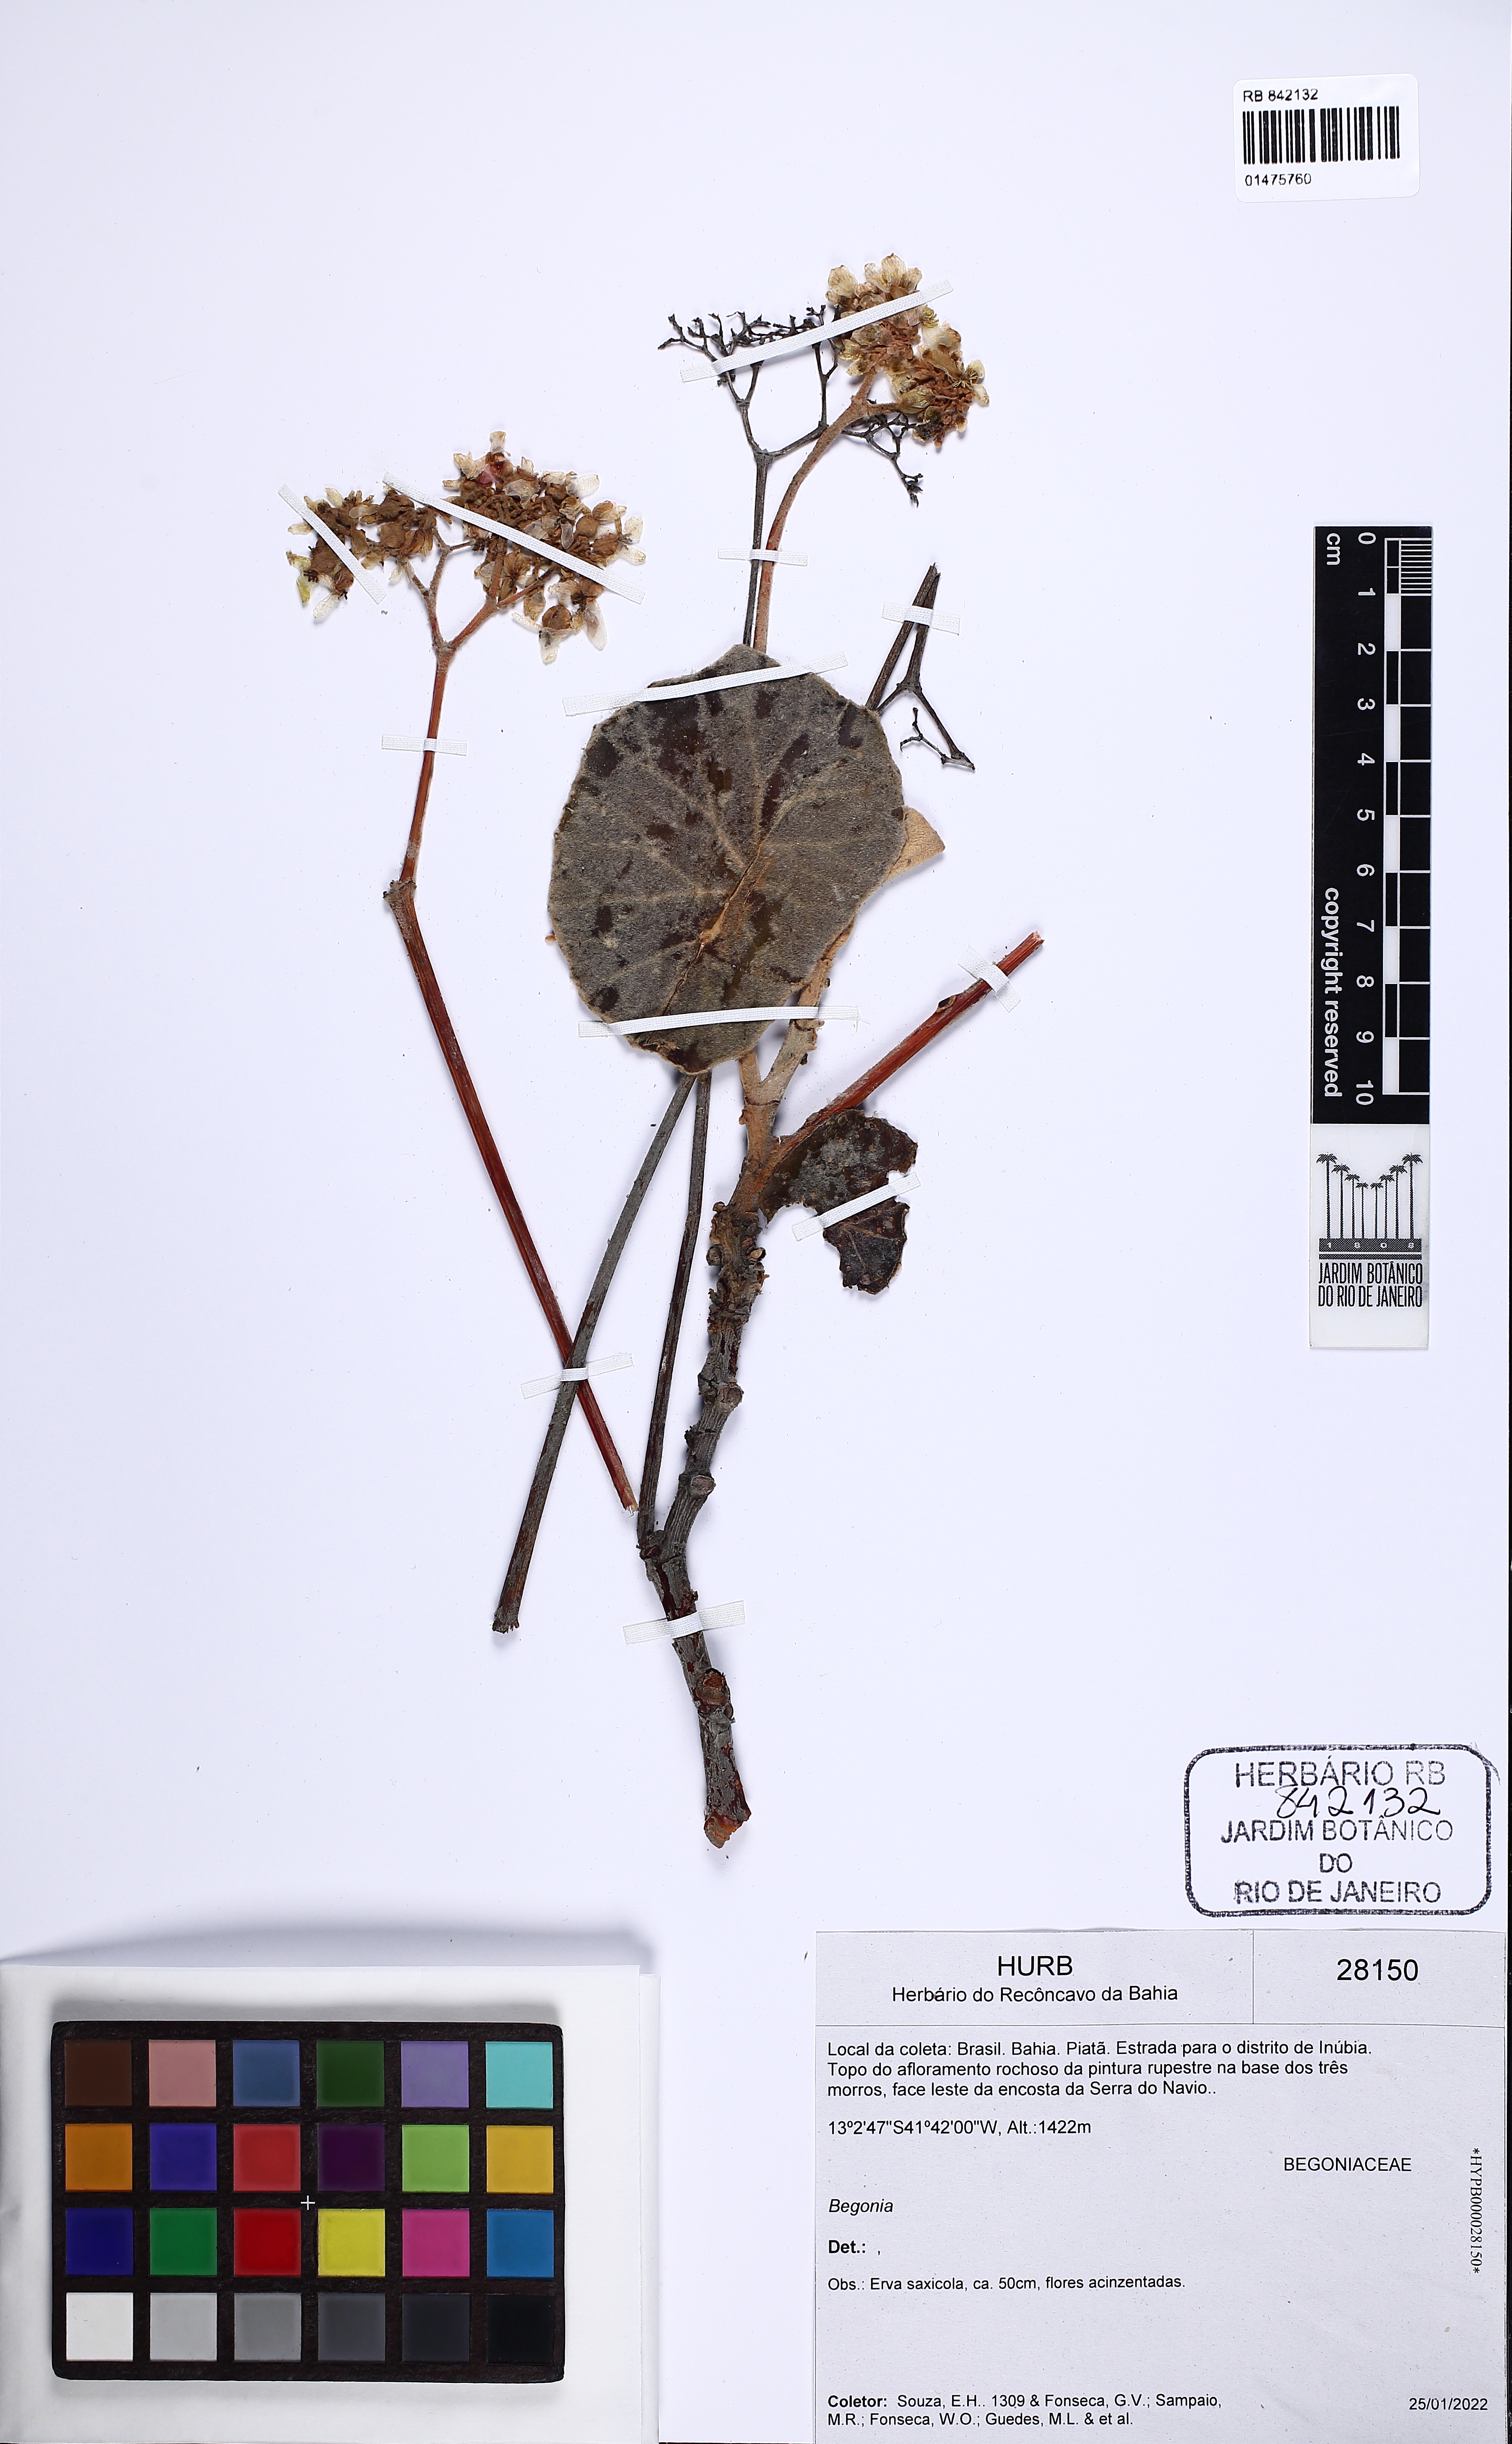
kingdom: Plantae
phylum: Tracheophyta
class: Magnoliopsida
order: Cucurbitales
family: Begoniaceae
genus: Begonia
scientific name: Begonia grisea
